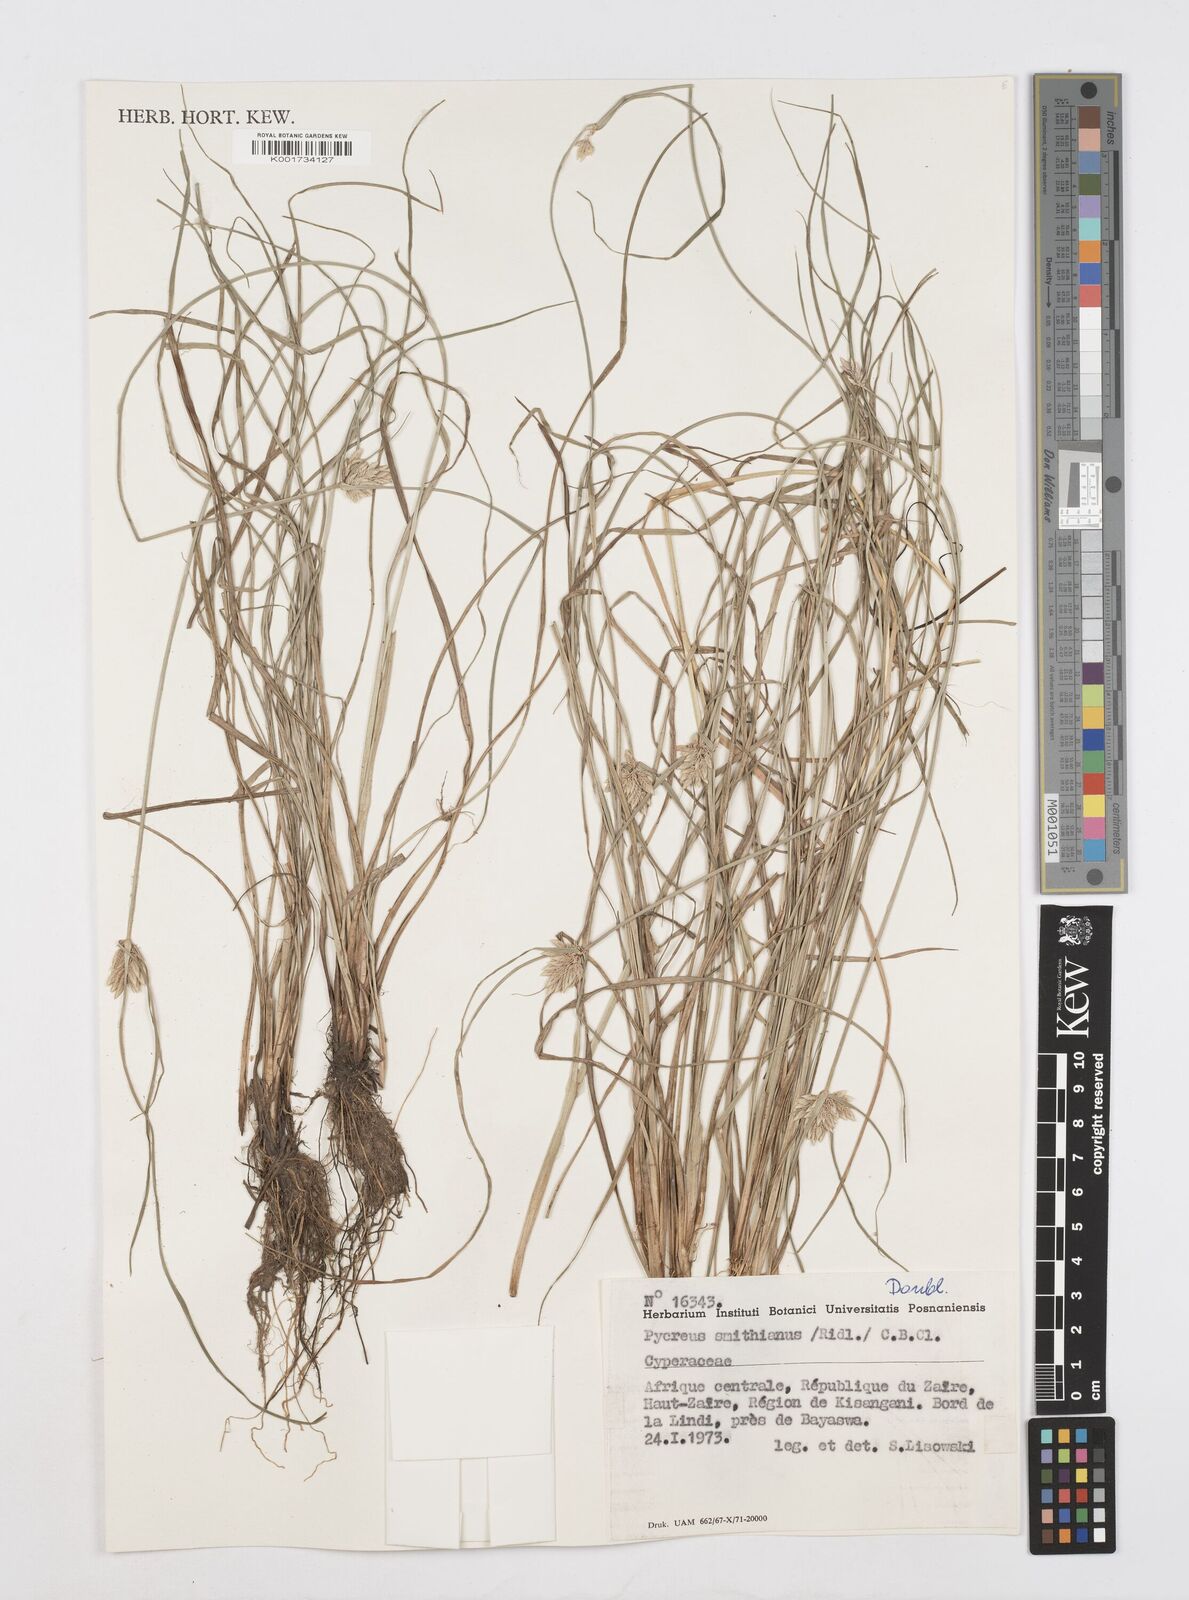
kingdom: Plantae
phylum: Tracheophyta
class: Liliopsida
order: Poales
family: Cyperaceae
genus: Cyperus
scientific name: Cyperus smithianus
